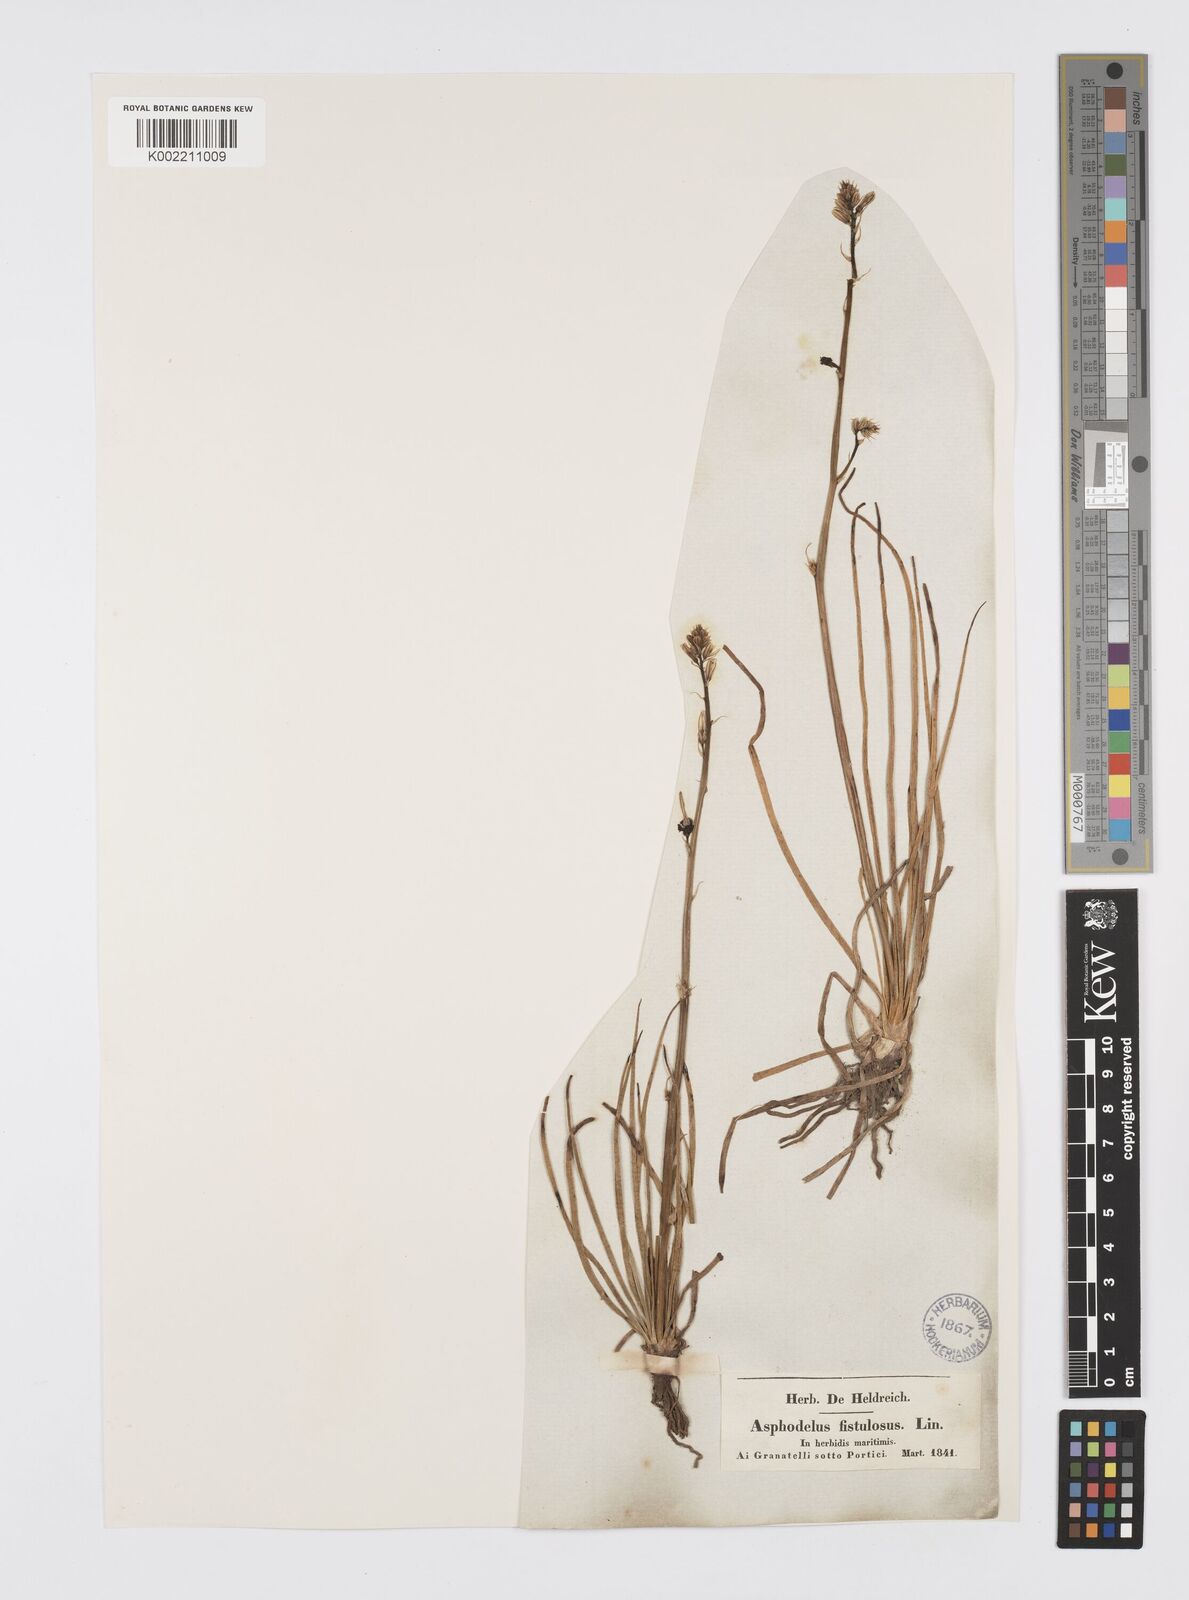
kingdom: Plantae
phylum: Tracheophyta
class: Liliopsida
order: Asparagales
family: Asphodelaceae
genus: Asphodelus
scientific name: Asphodelus fistulosus
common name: Onionweed
